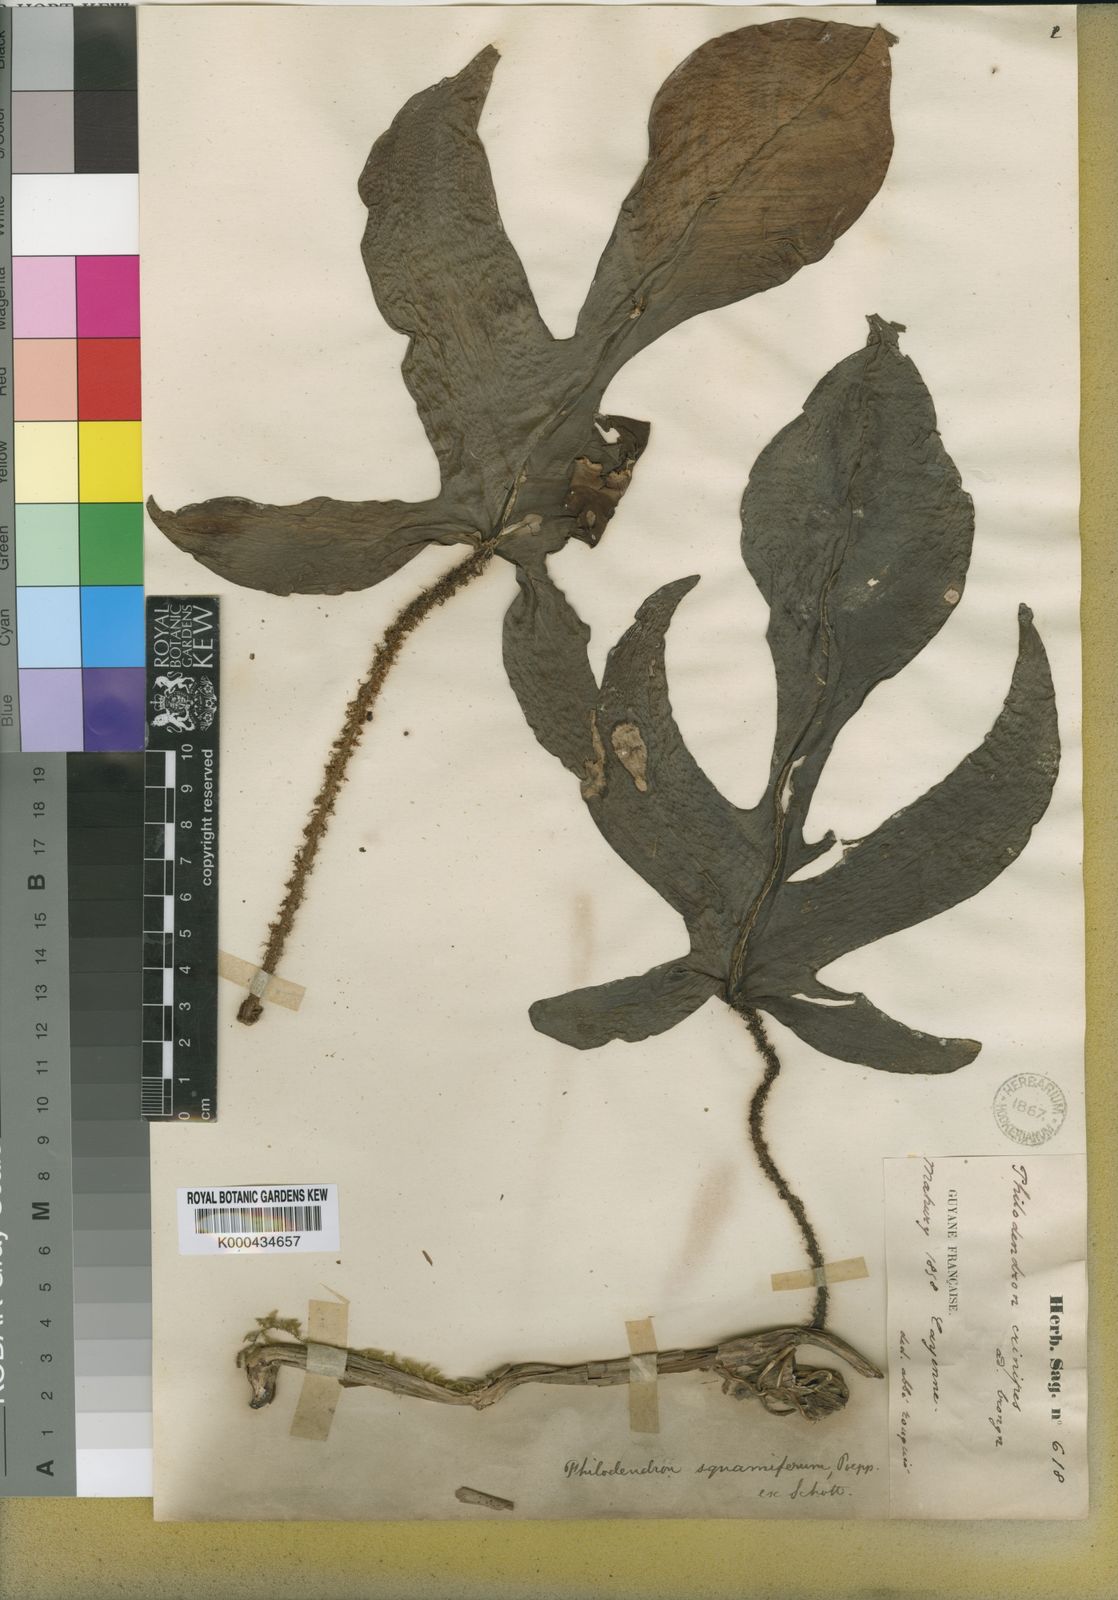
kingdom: Plantae
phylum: Tracheophyta
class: Liliopsida
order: Alismatales
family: Araceae
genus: Philodendron
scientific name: Philodendron squamiferum
